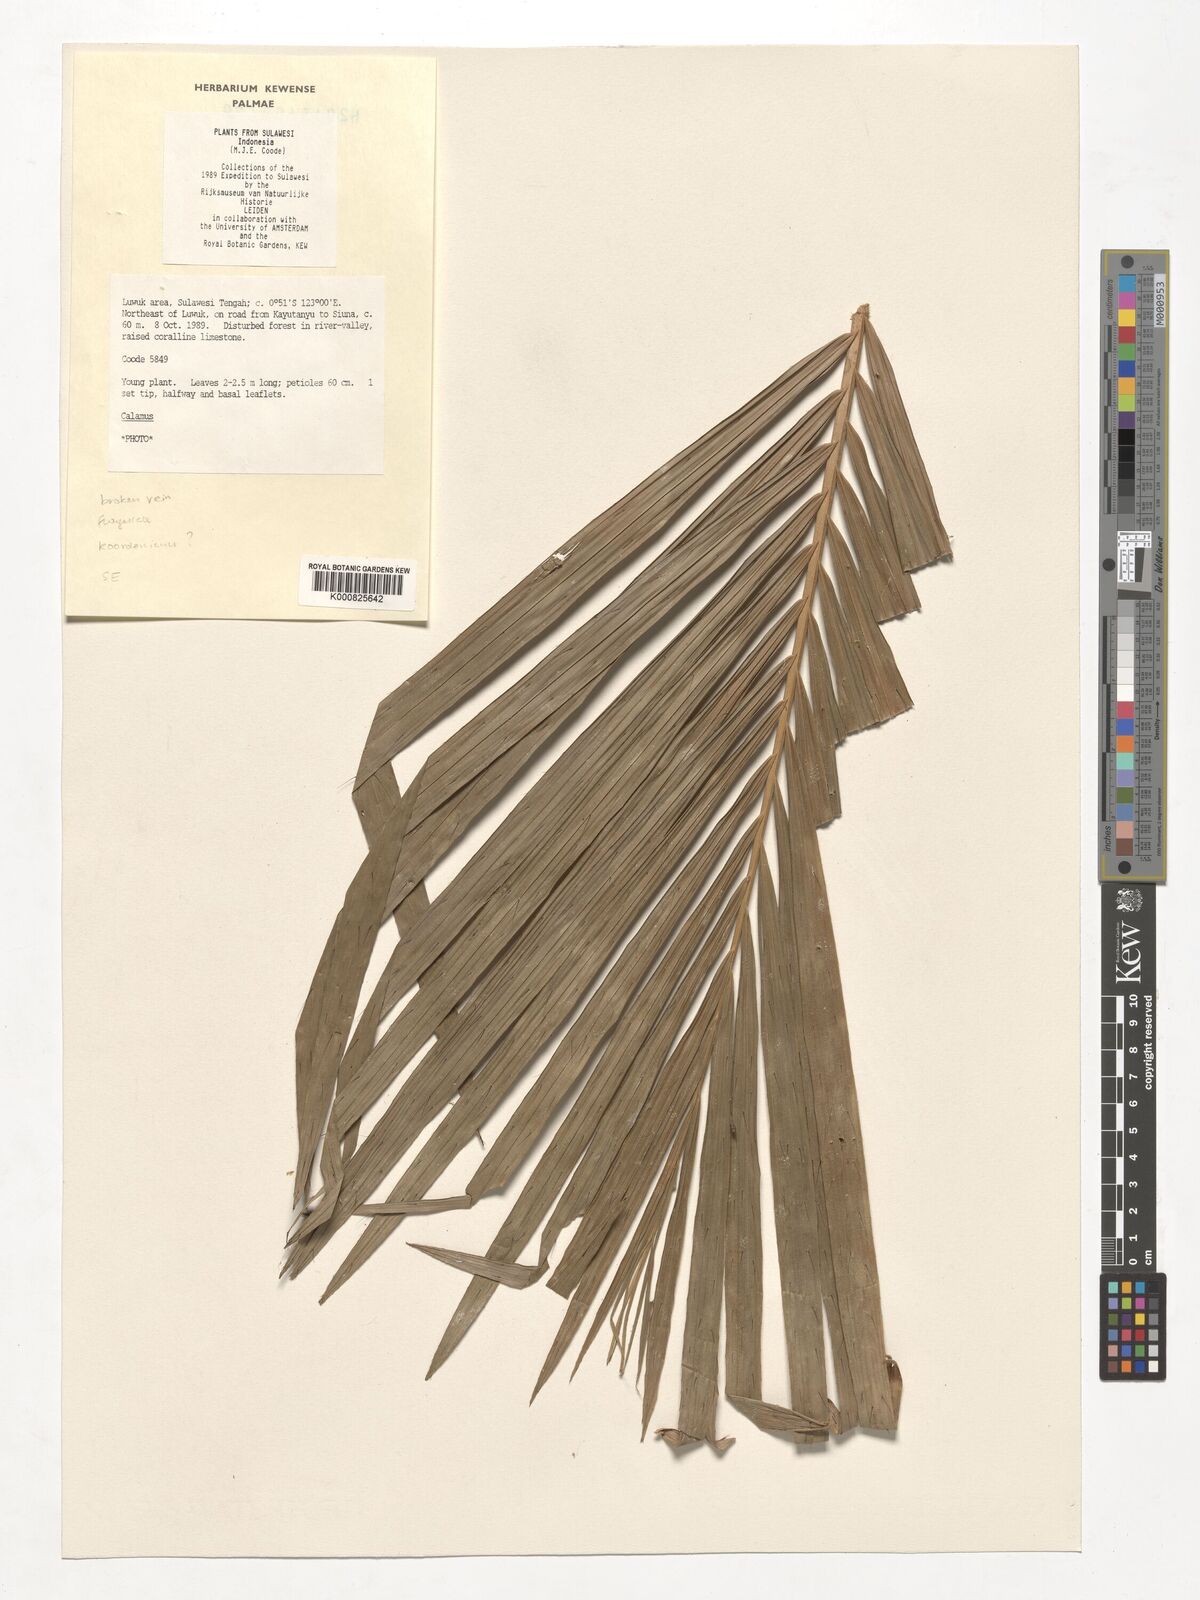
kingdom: Plantae
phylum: Tracheophyta
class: Liliopsida
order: Arecales
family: Arecaceae
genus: Calamus
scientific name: Calamus
